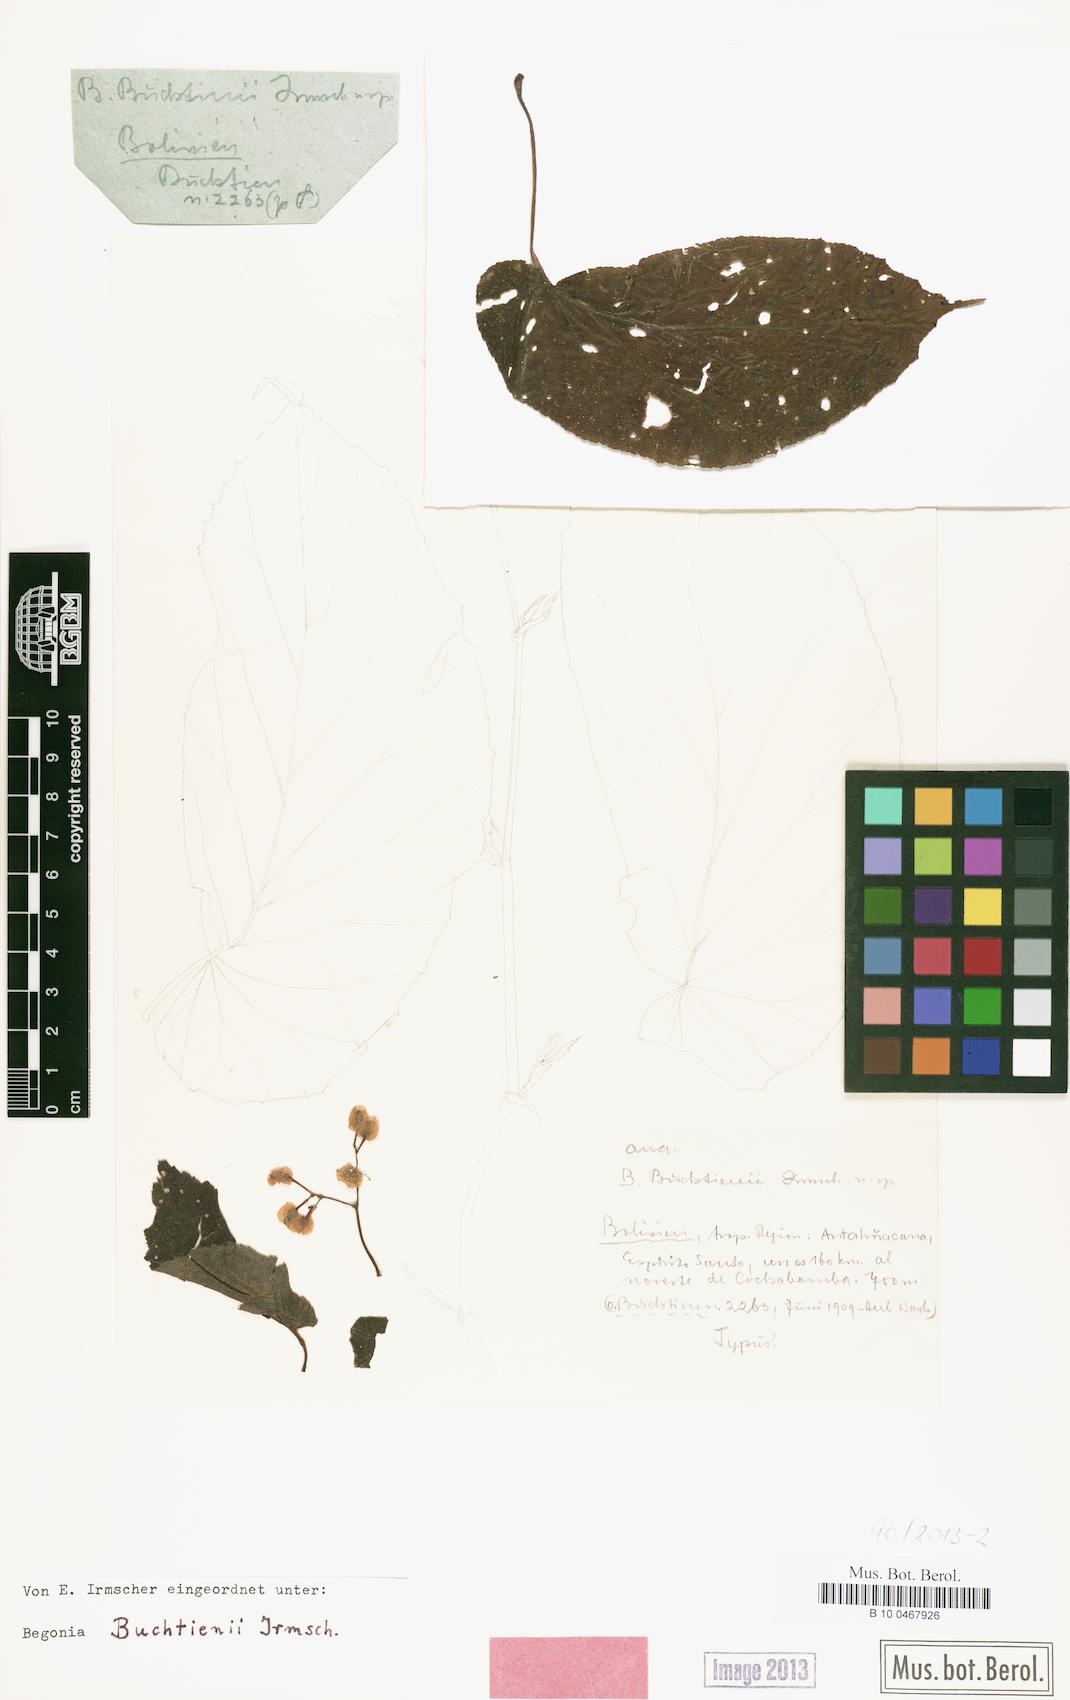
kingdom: Plantae
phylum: Tracheophyta
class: Magnoliopsida
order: Cucurbitales
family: Begoniaceae
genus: Begonia
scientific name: Begonia buchtienii
